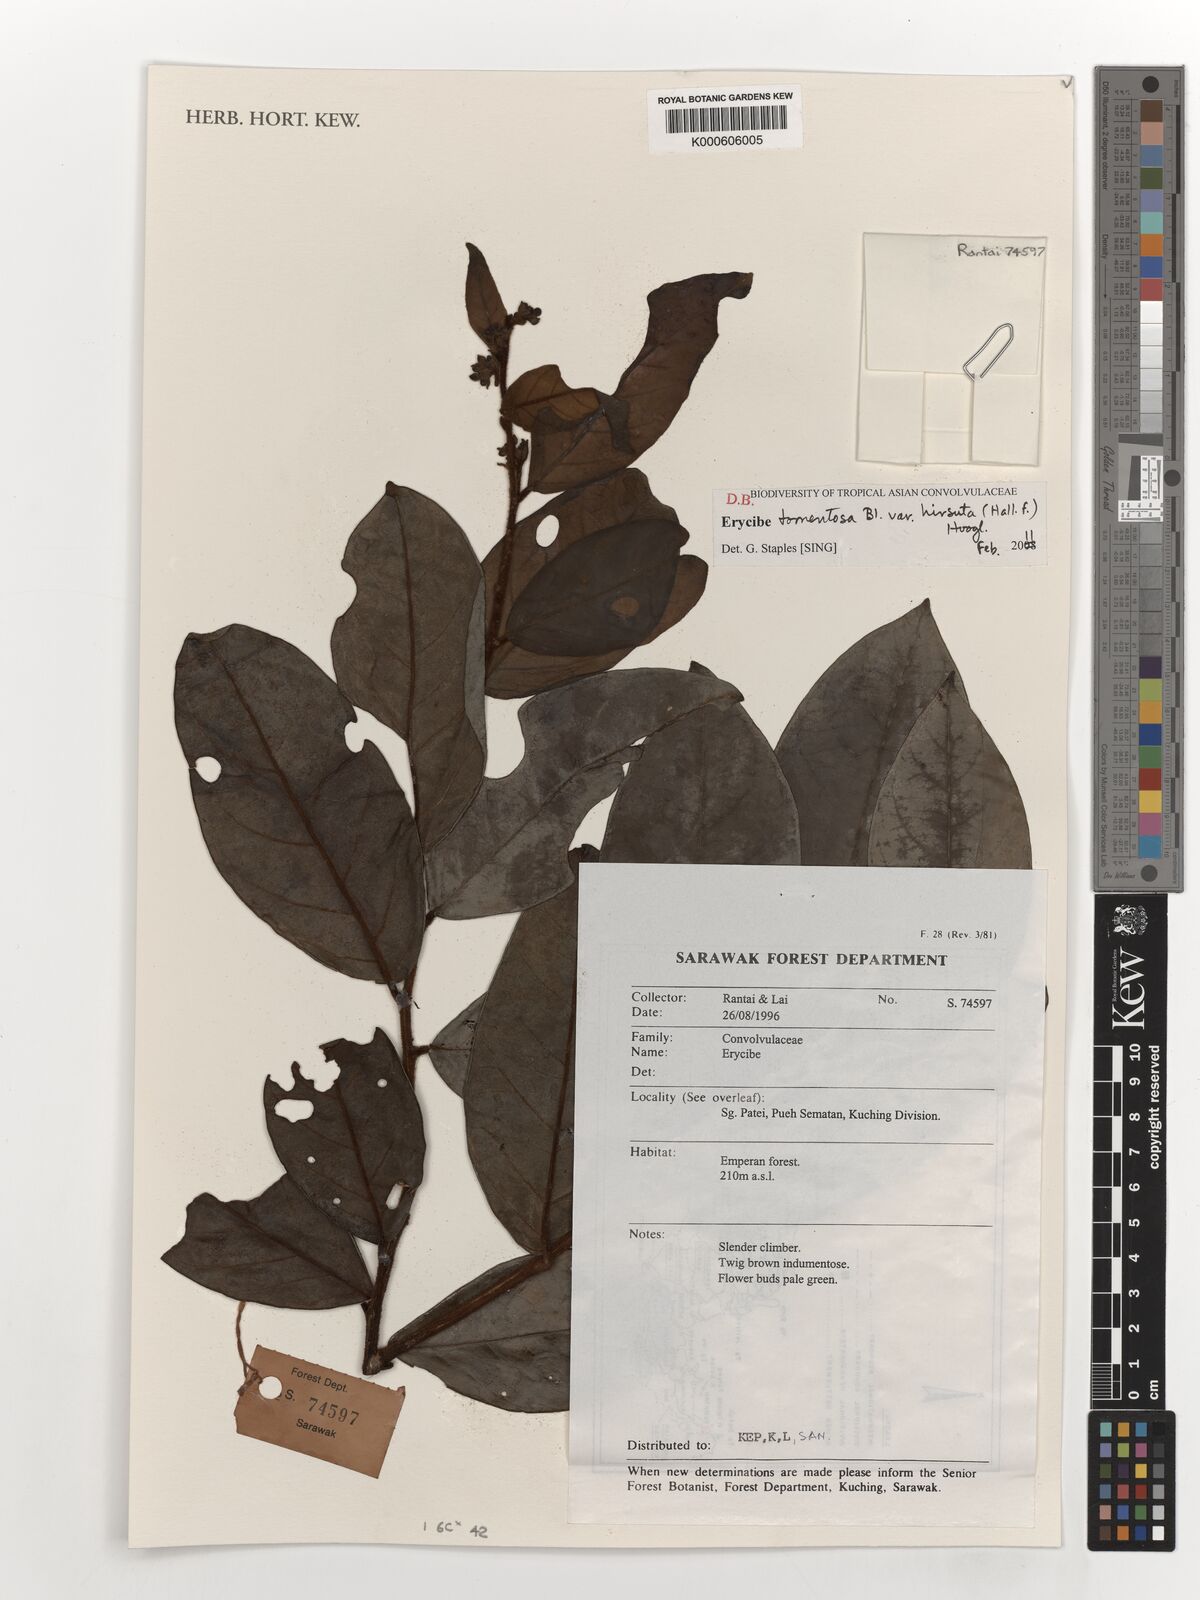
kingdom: Plantae
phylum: Tracheophyta
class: Magnoliopsida
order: Solanales
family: Convolvulaceae
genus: Erycibe
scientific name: Erycibe tomentosa
